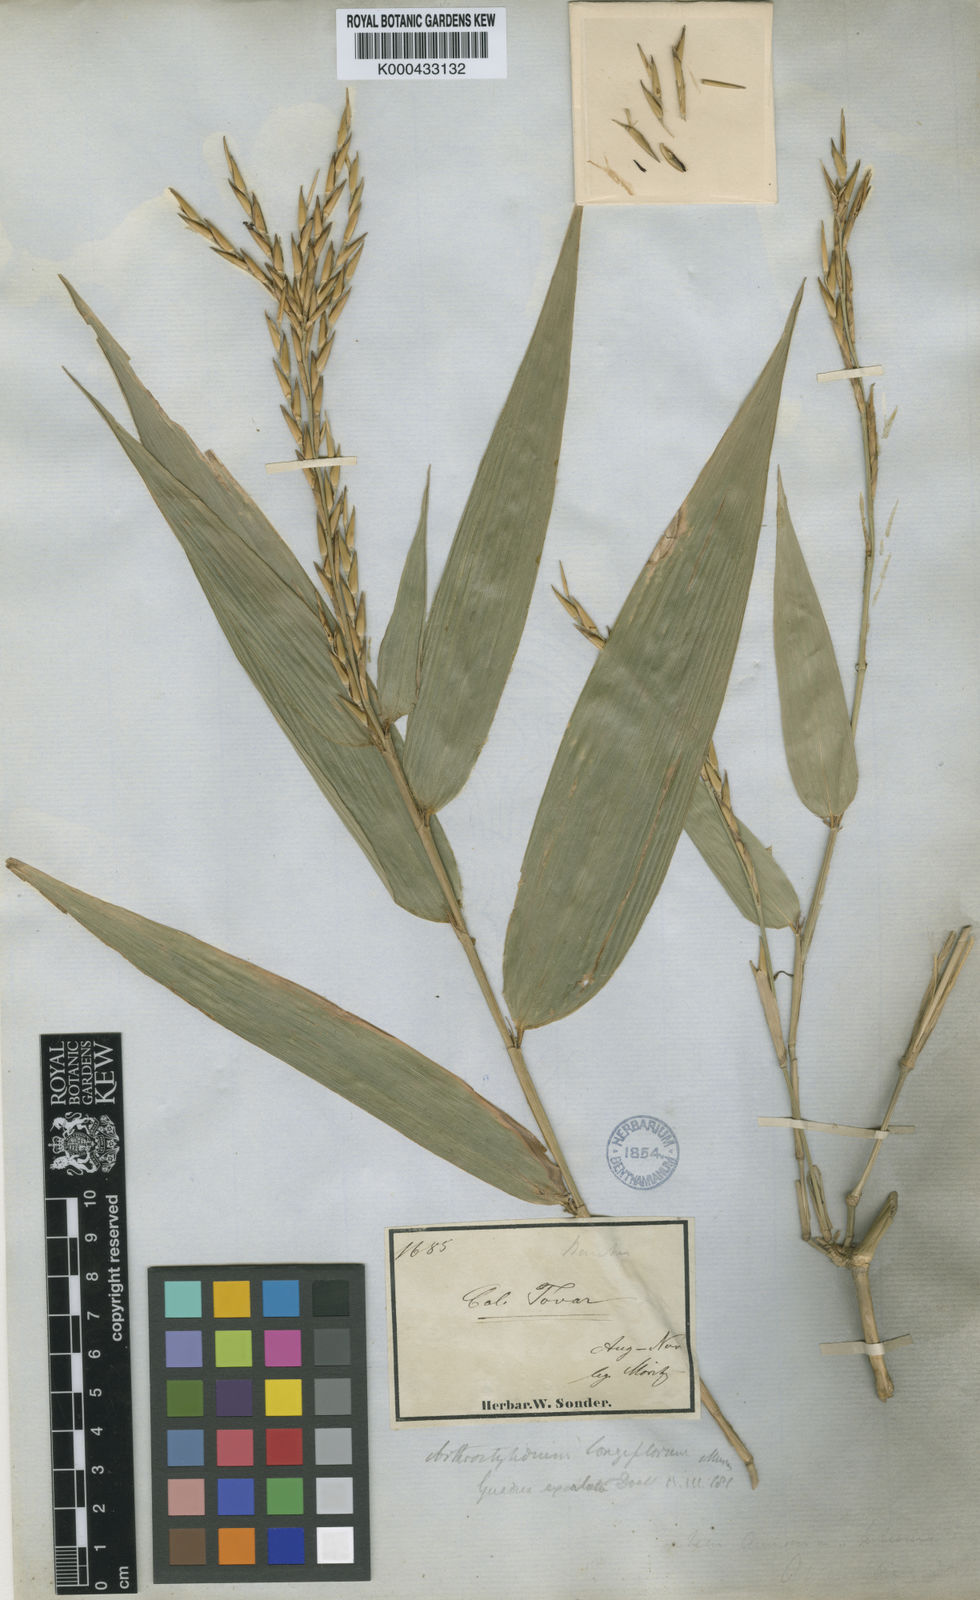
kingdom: Plantae
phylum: Tracheophyta
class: Liliopsida
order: Poales
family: Poaceae
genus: Arthrostylidium
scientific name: Arthrostylidium longiflorum
